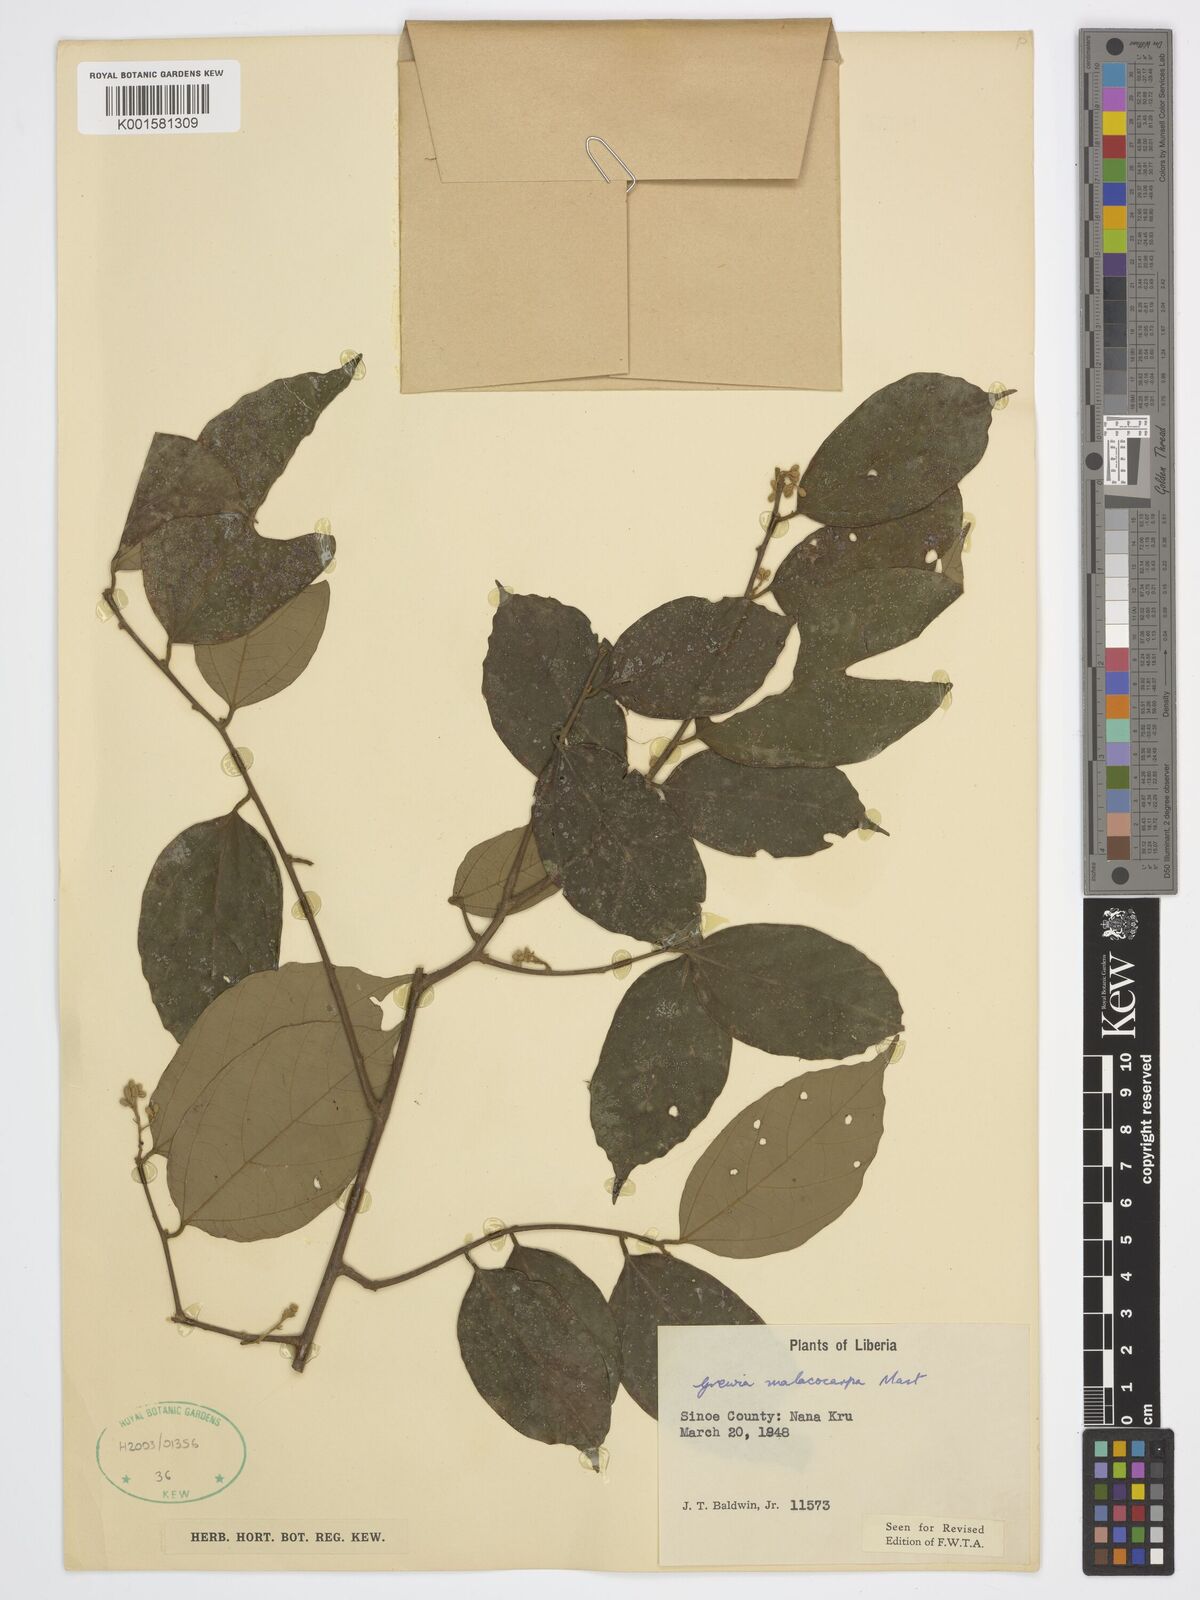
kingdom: Plantae
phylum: Tracheophyta
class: Magnoliopsida
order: Malvales
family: Malvaceae
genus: Microcos
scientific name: Microcos malacocarpa
